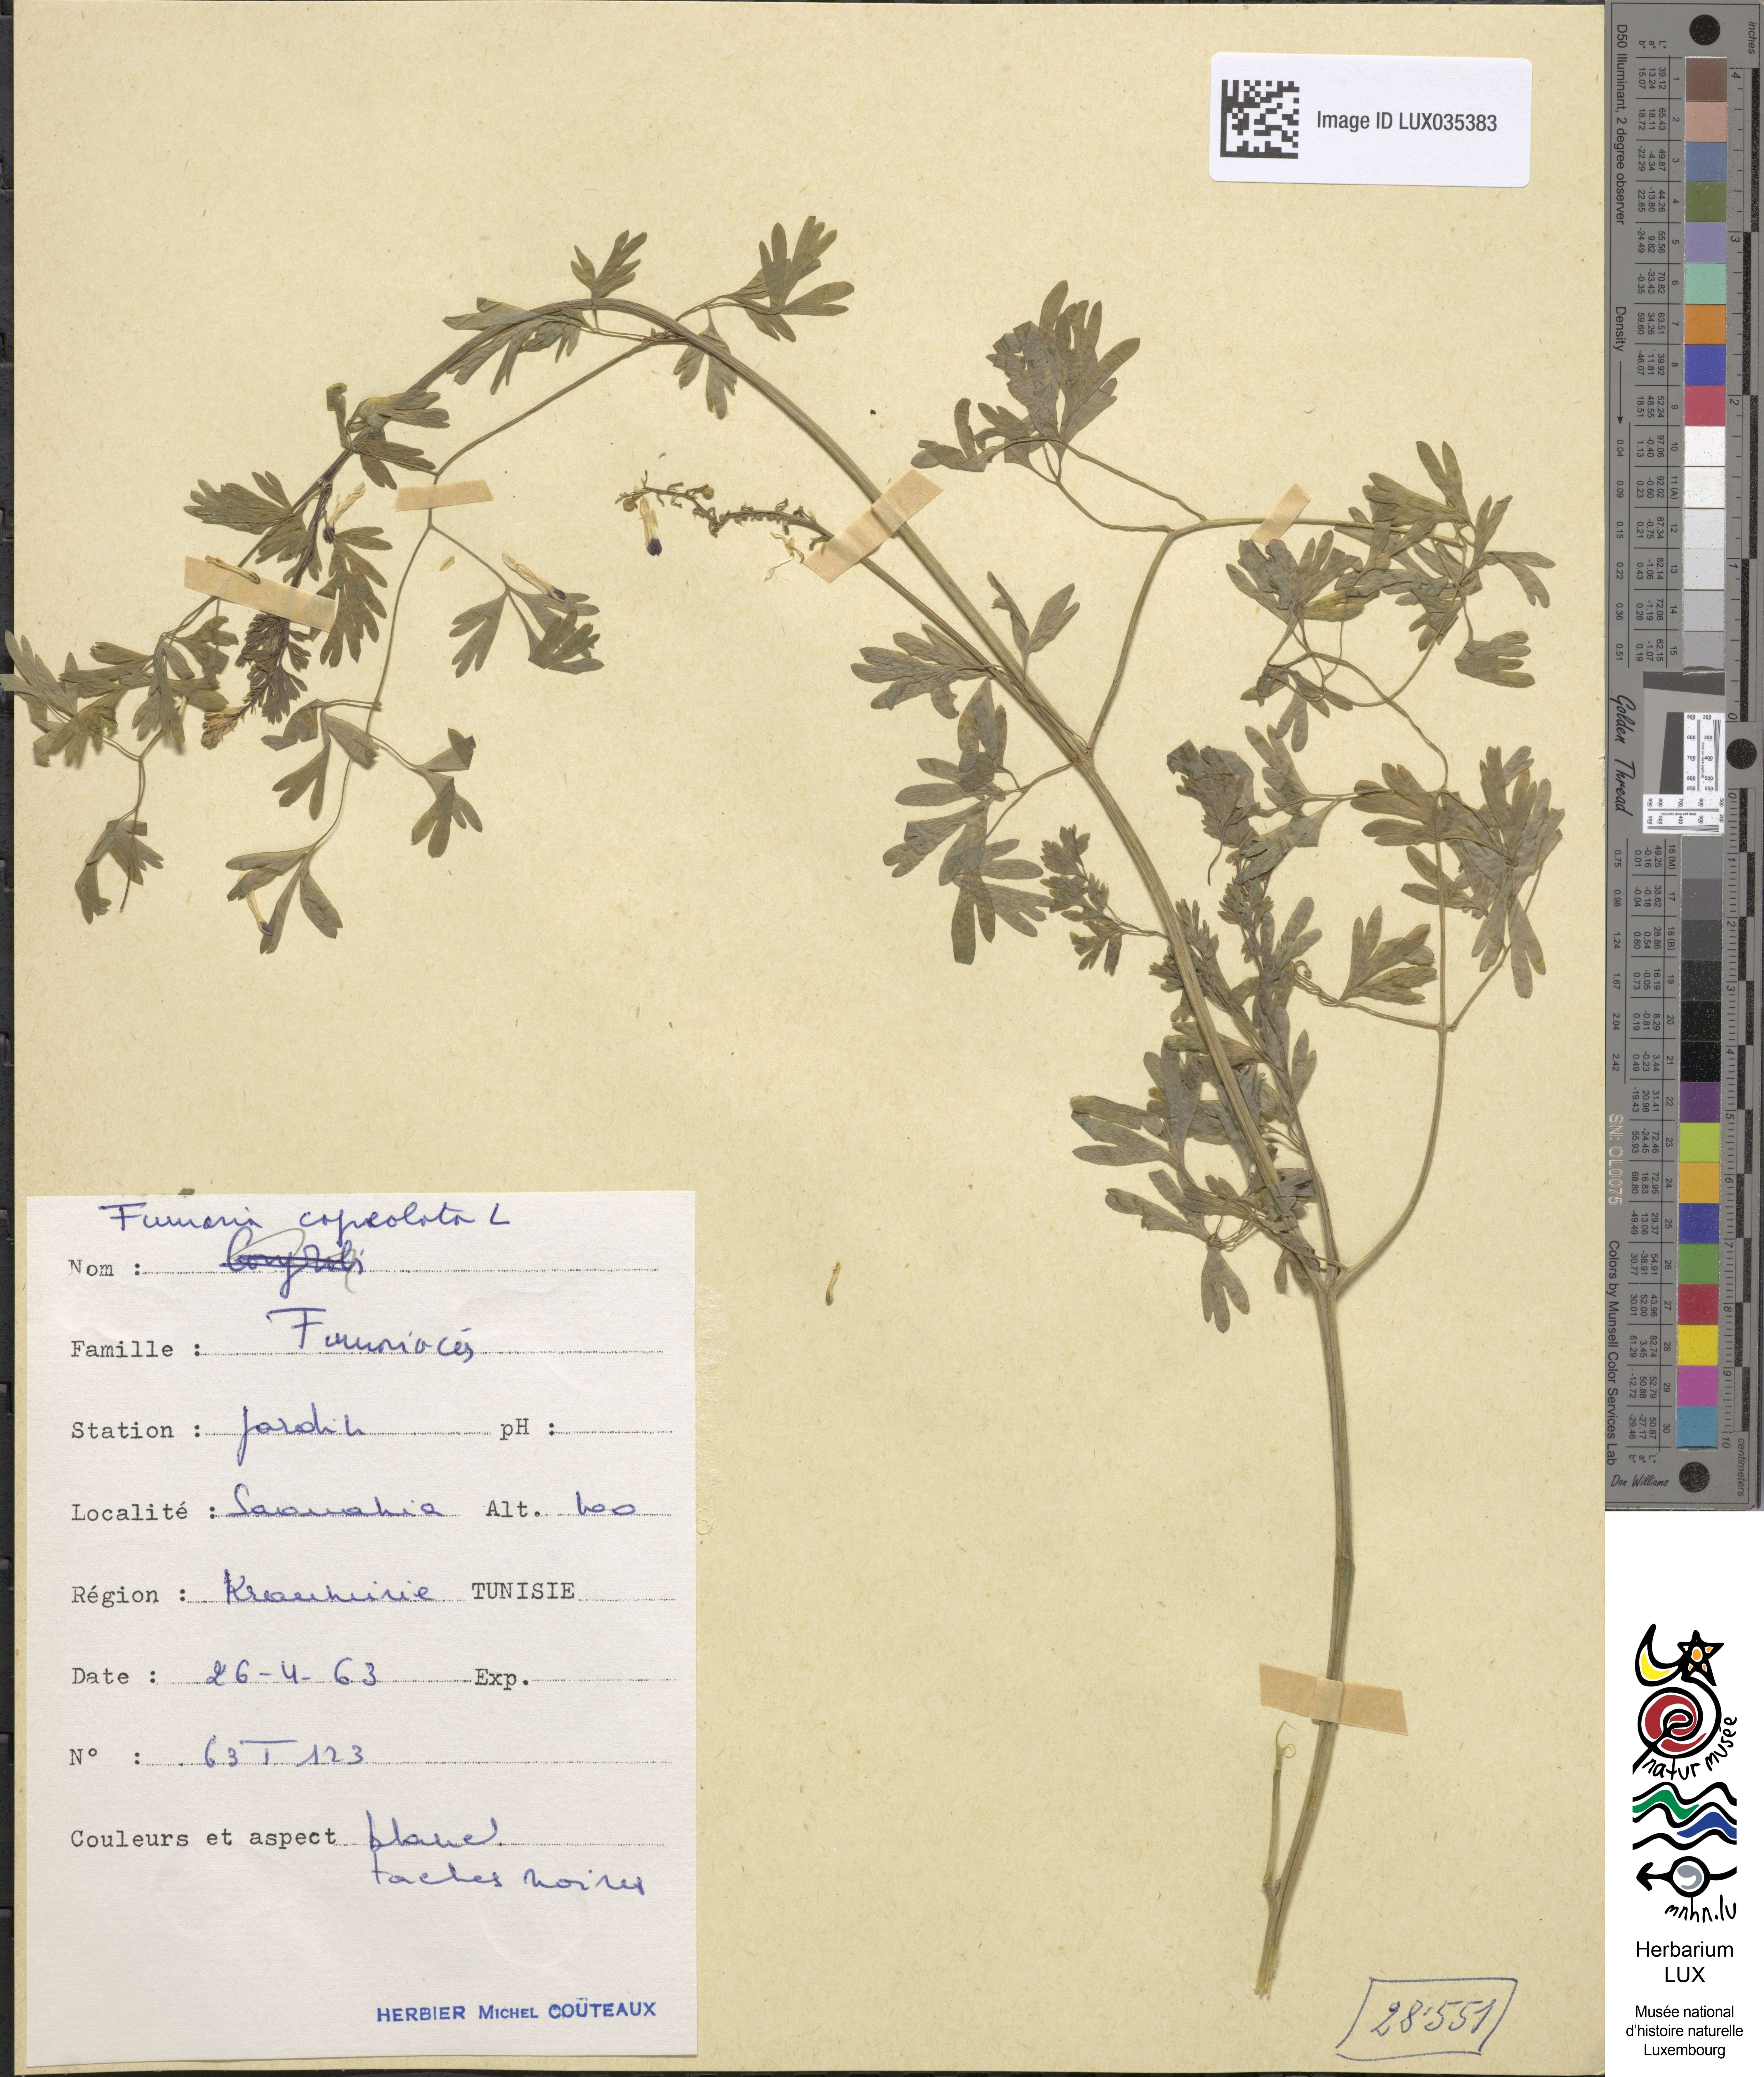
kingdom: Plantae
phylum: Tracheophyta
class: Magnoliopsida
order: Ranunculales
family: Papaveraceae
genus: Fumaria
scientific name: Fumaria capreolata
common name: White ramping-fumitory
